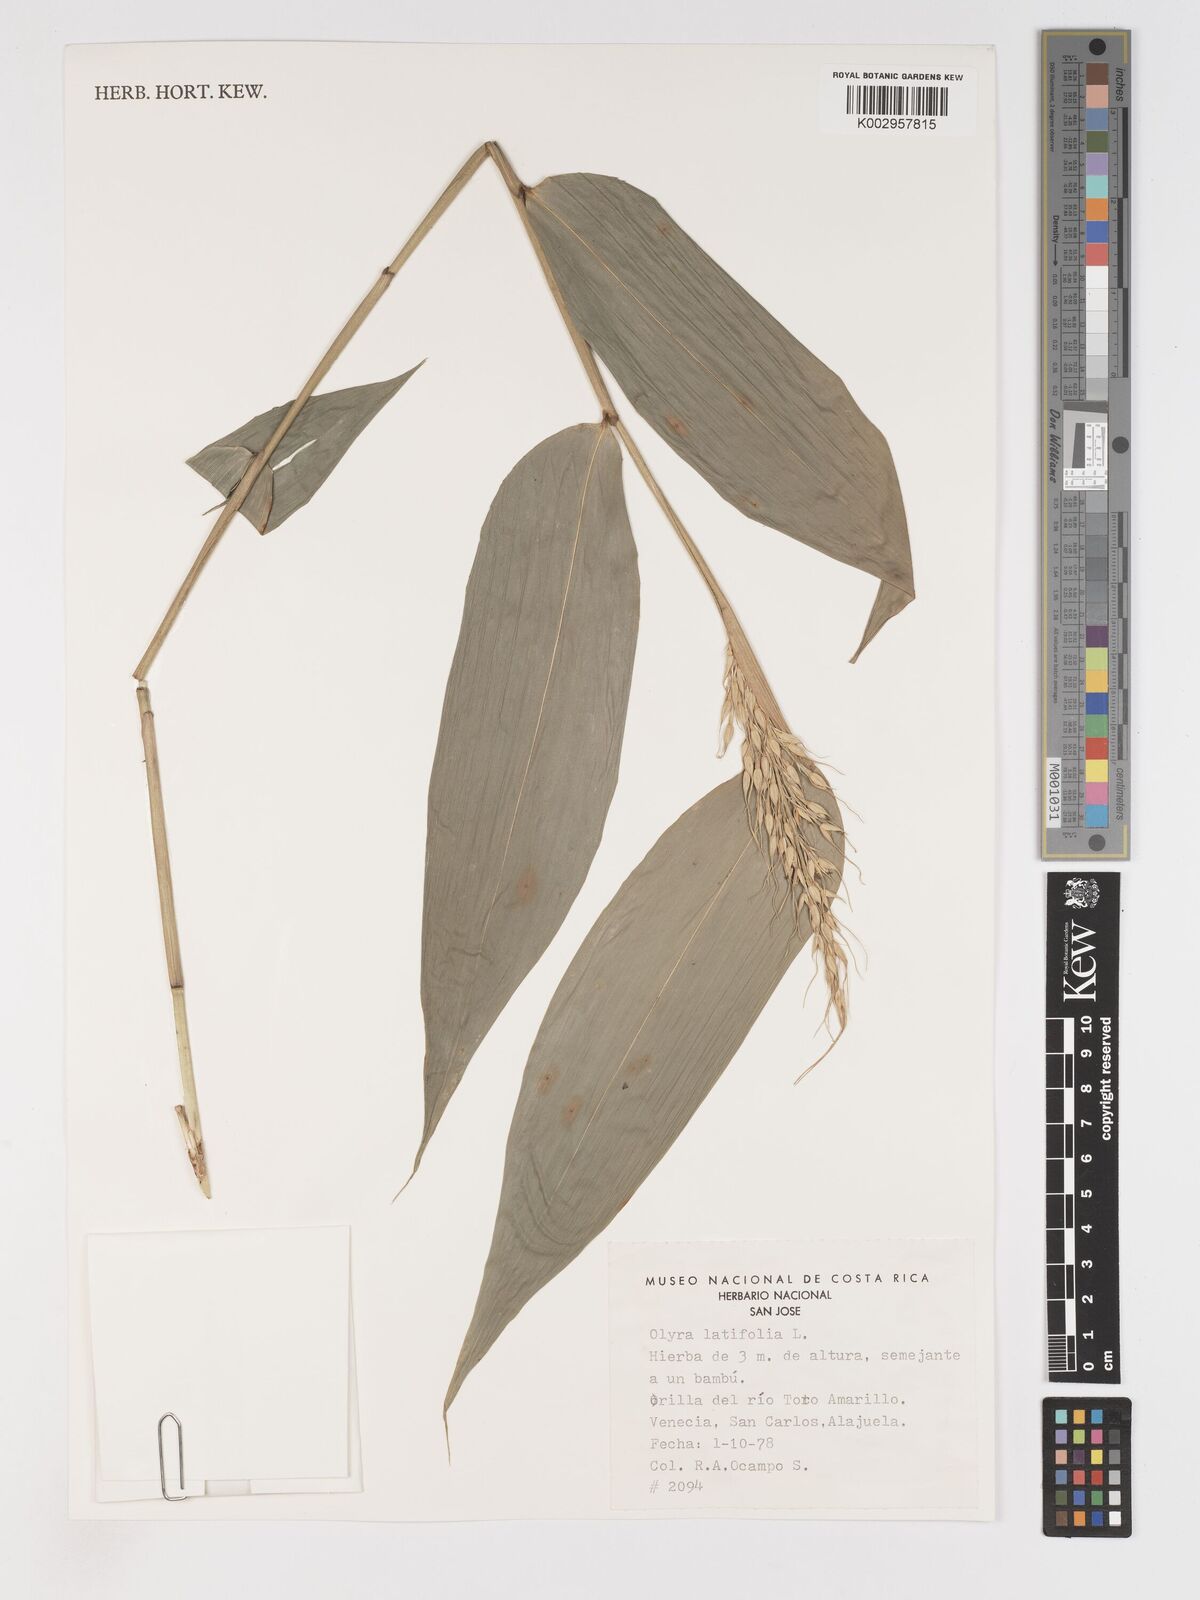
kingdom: Plantae
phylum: Tracheophyta
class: Liliopsida
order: Poales
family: Poaceae
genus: Olyra
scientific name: Olyra latifolia
